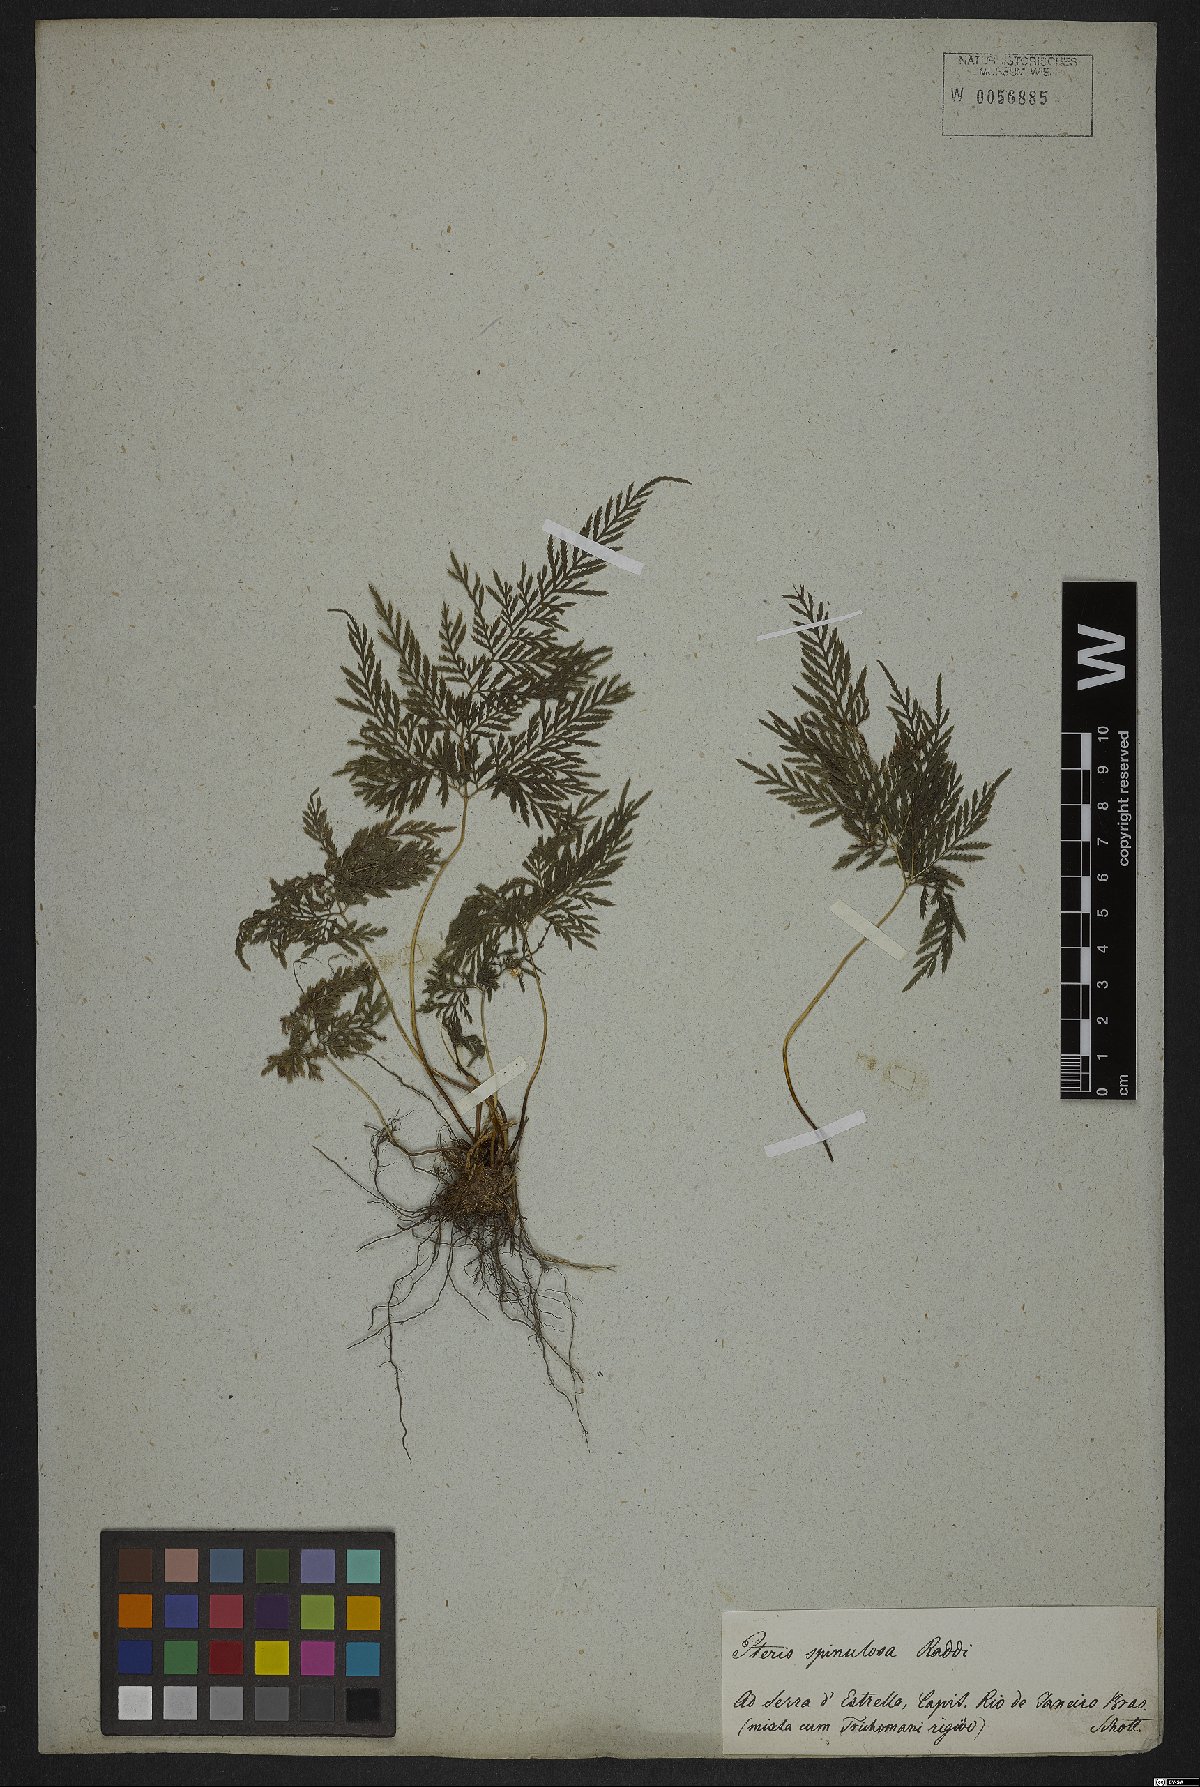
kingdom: Plantae
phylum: Tracheophyta
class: Polypodiopsida
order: Polypodiales
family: Pteridaceae
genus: Pteris
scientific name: Pteris leptophylla
